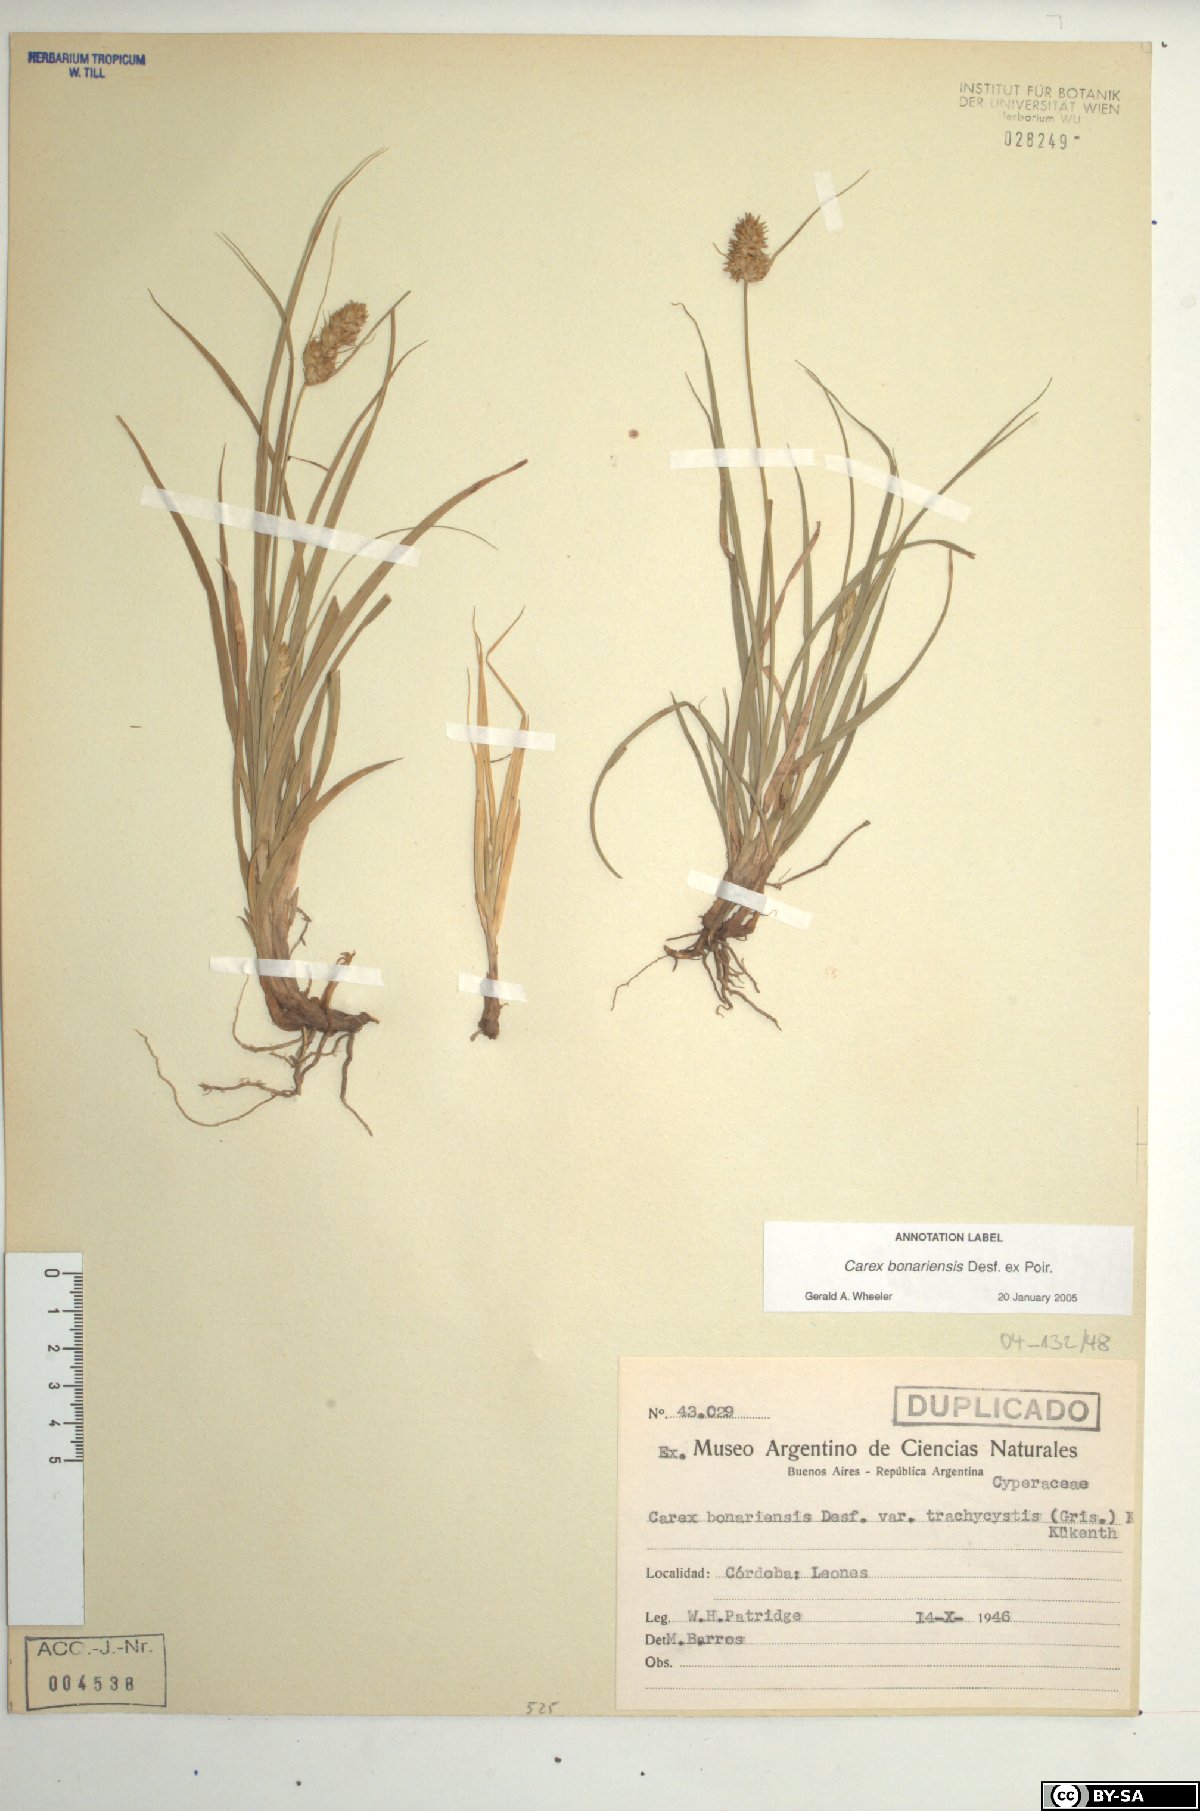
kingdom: Plantae
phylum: Tracheophyta
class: Liliopsida
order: Poales
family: Cyperaceae
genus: Carex
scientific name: Carex bonariensis
